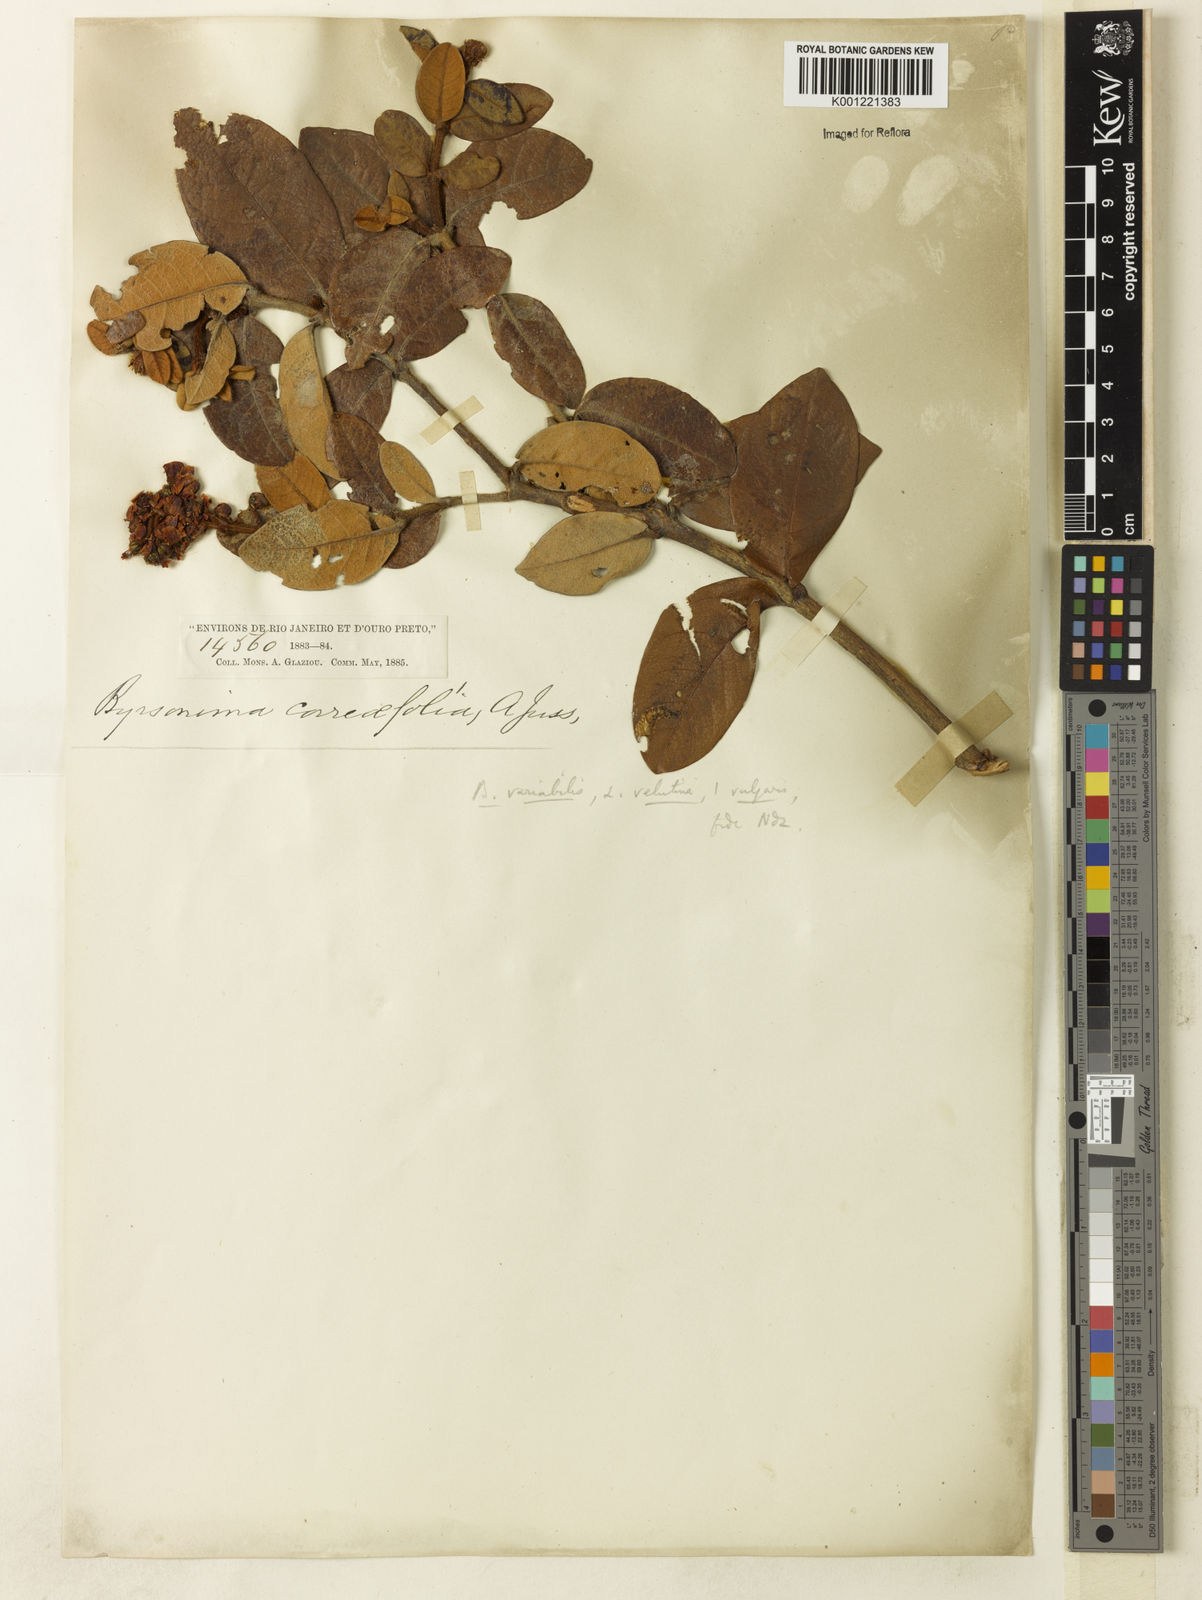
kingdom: Plantae
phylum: Tracheophyta
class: Magnoliopsida
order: Malpighiales
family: Malpighiaceae
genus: Byrsonima
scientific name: Byrsonima variabilis
